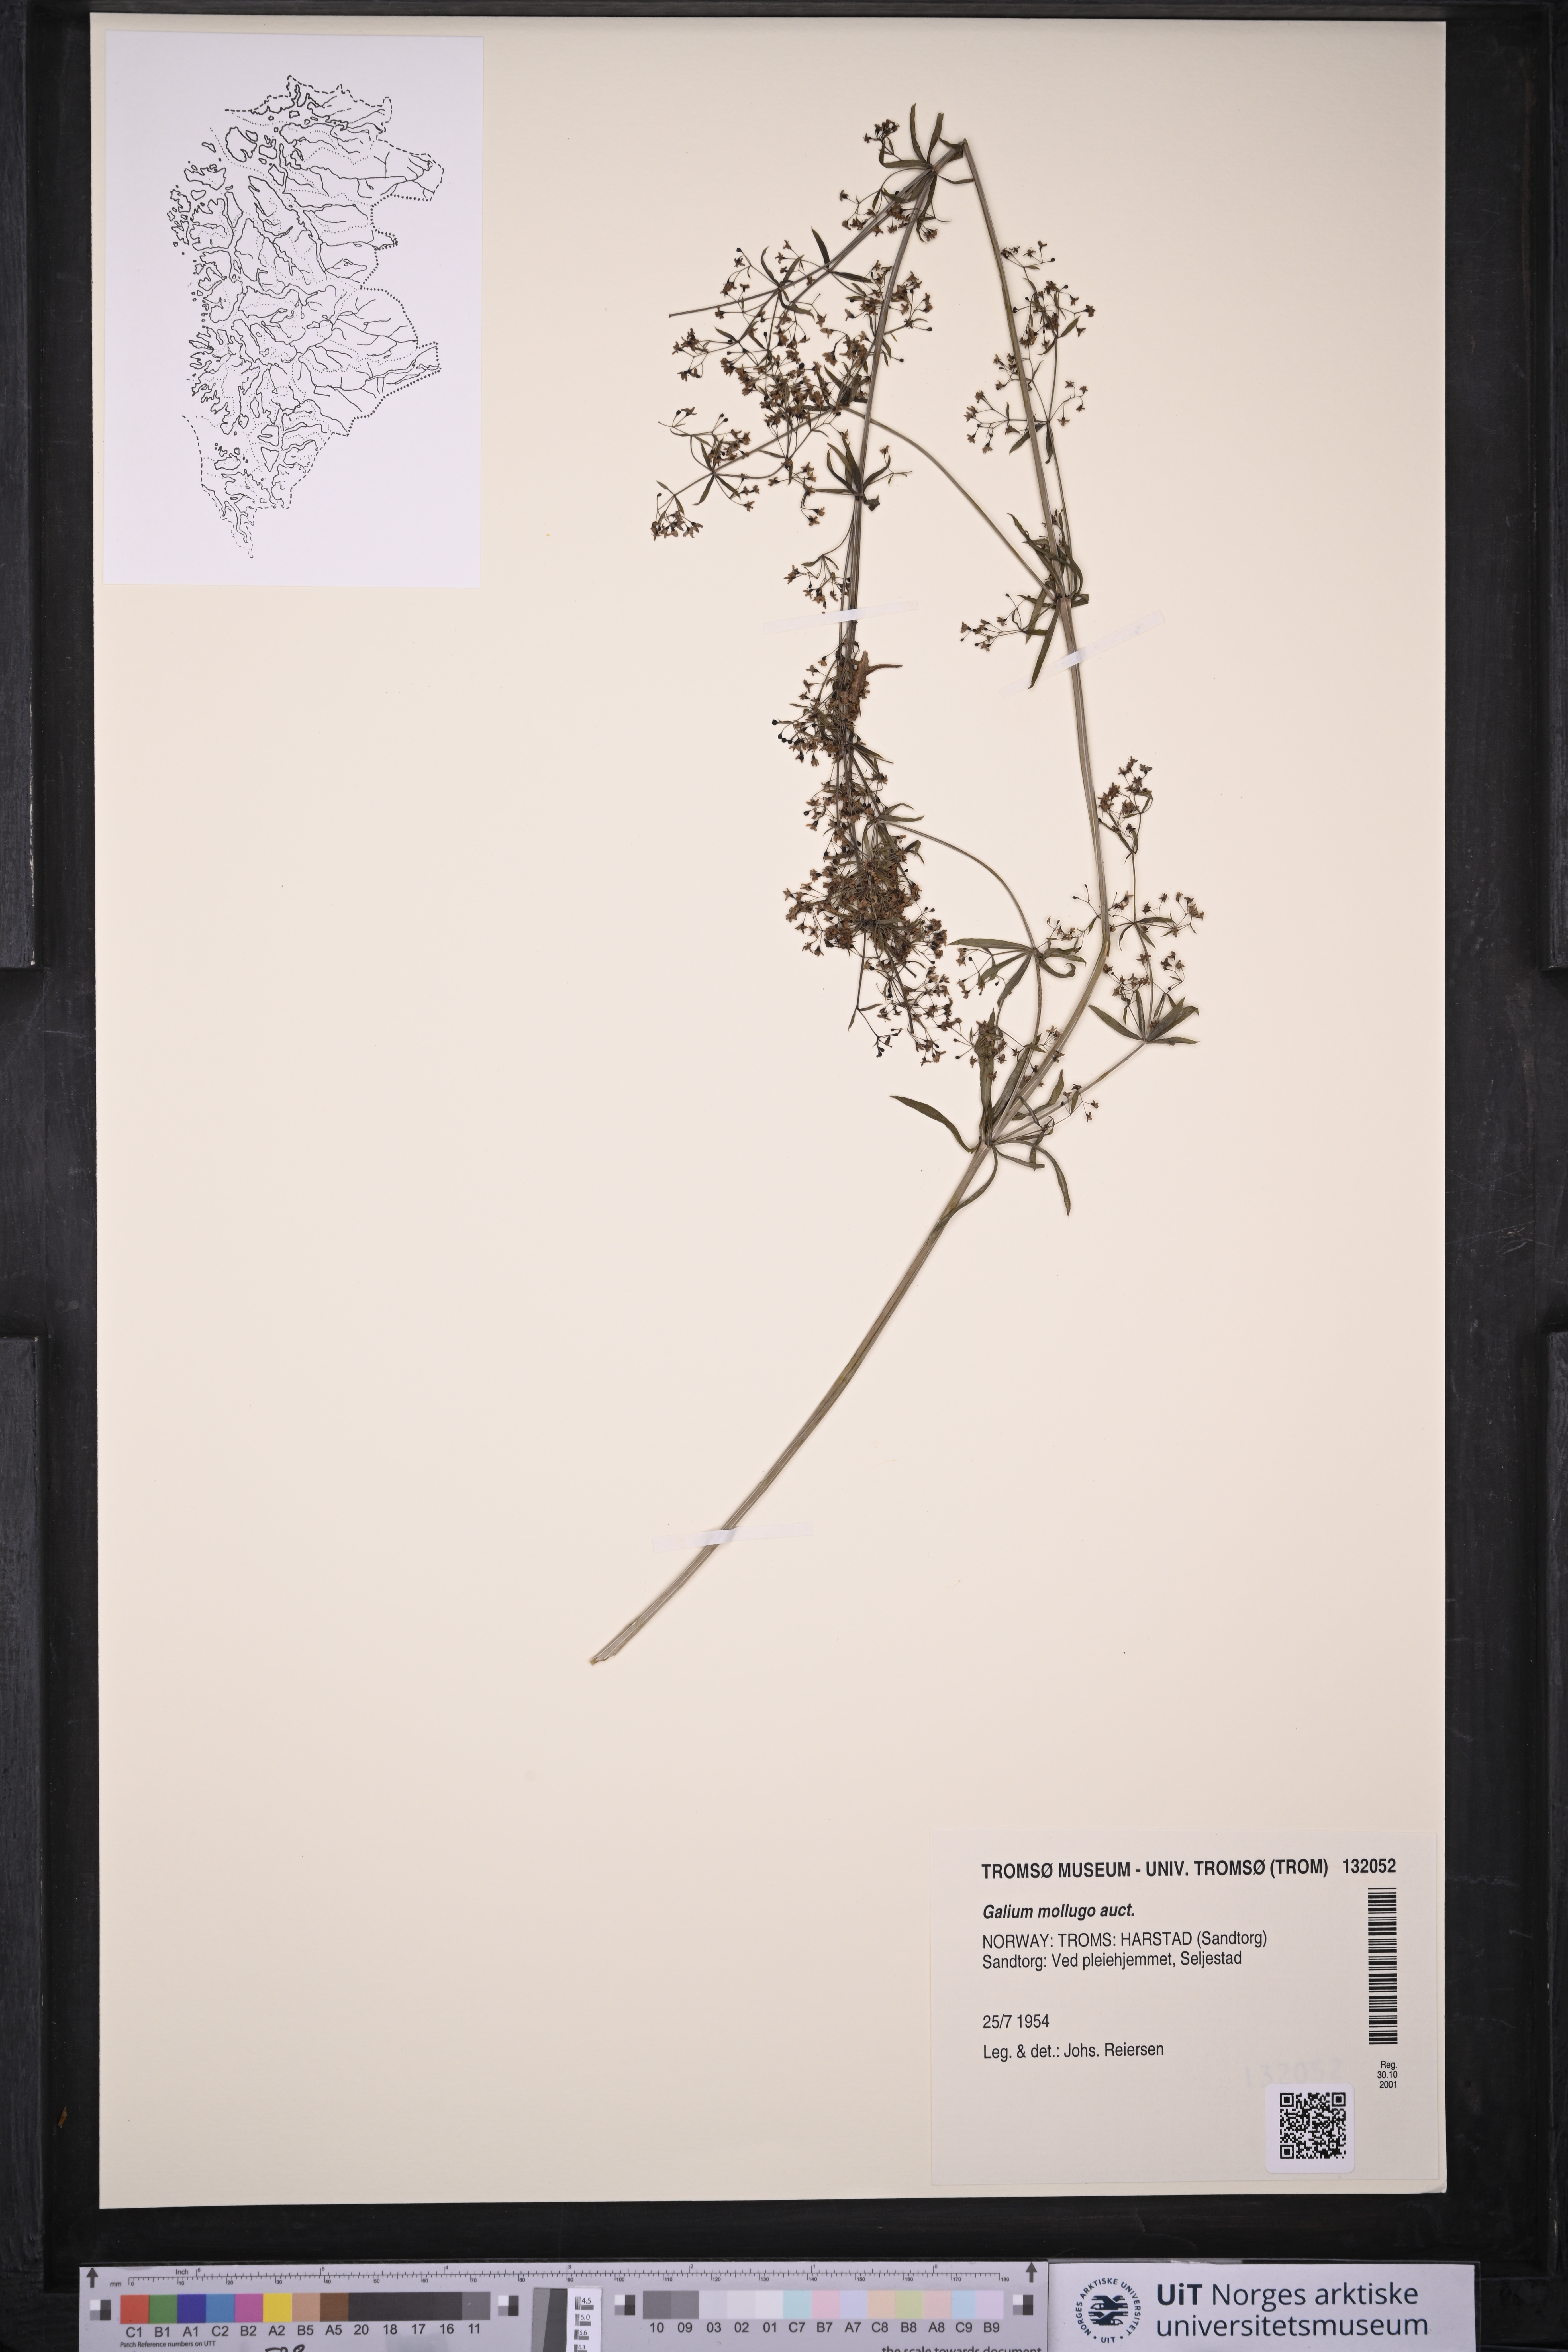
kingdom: Plantae
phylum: Tracheophyta
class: Magnoliopsida
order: Gentianales
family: Rubiaceae
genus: Galium
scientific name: Galium
